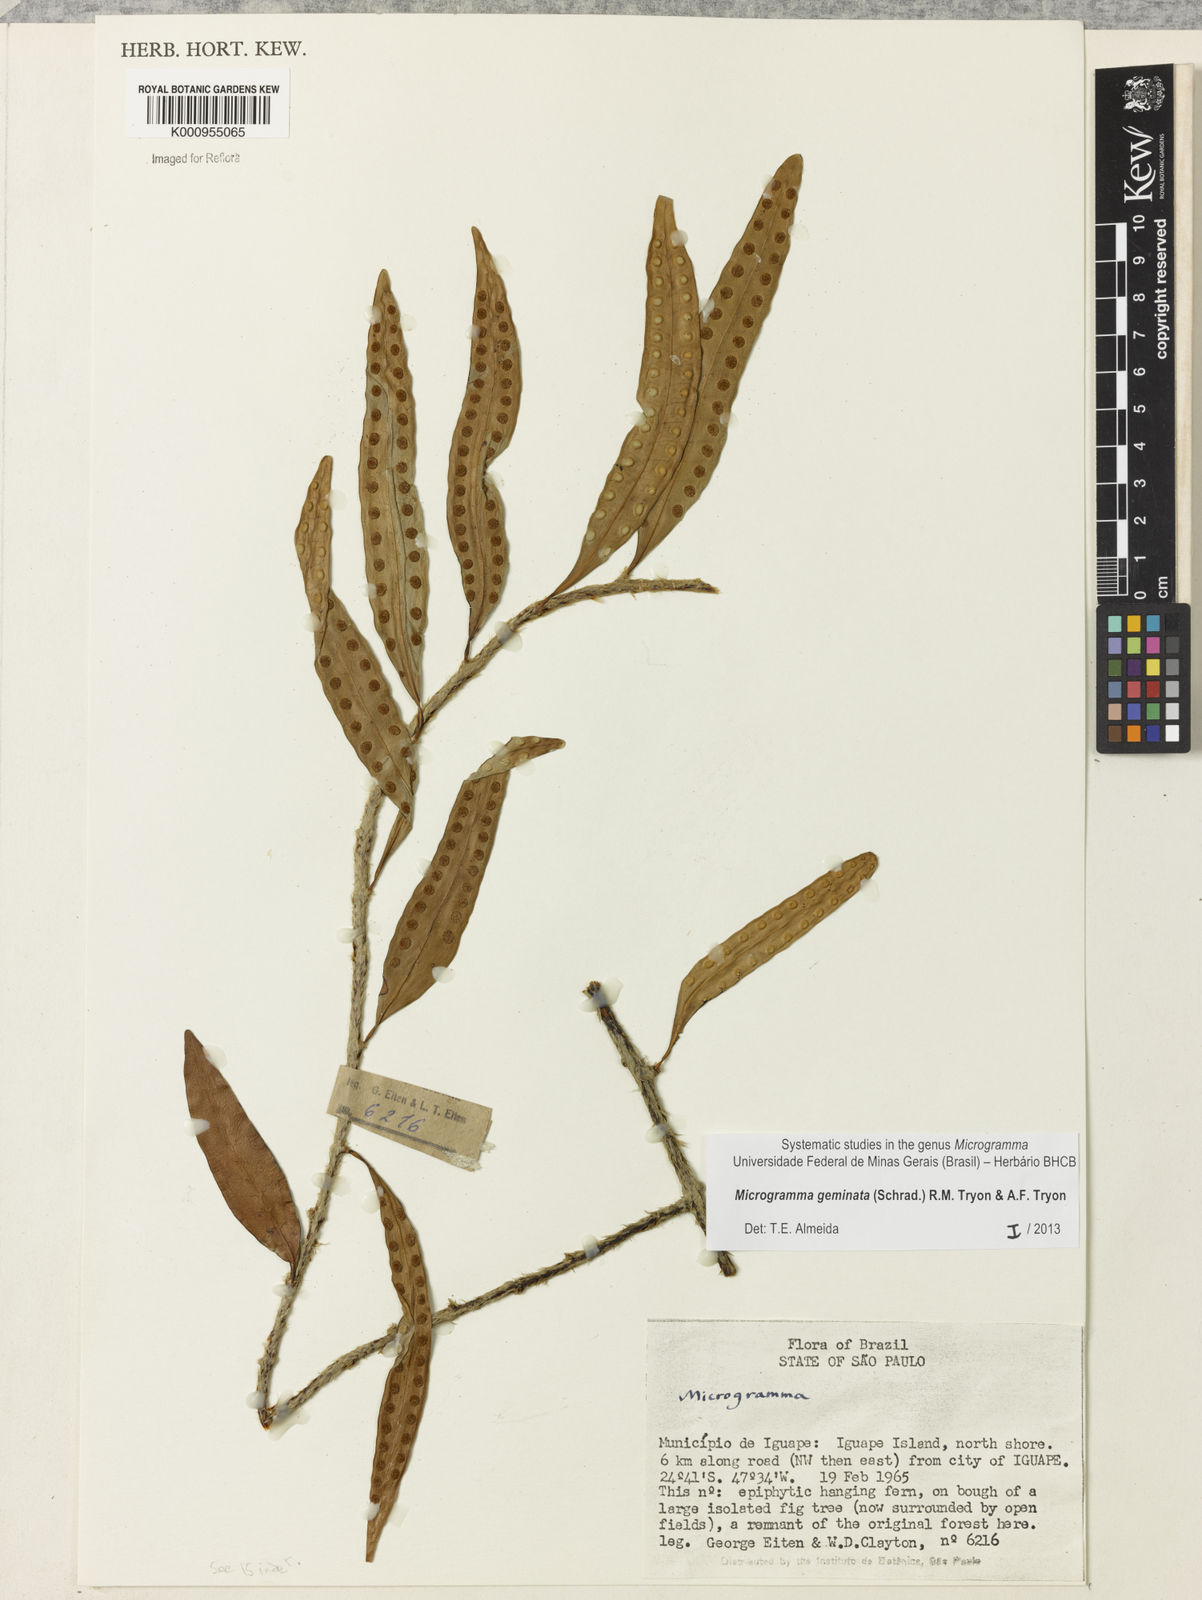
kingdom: Plantae
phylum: Tracheophyta
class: Polypodiopsida
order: Polypodiales
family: Polypodiaceae
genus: Microgramma
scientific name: Microgramma geminata
